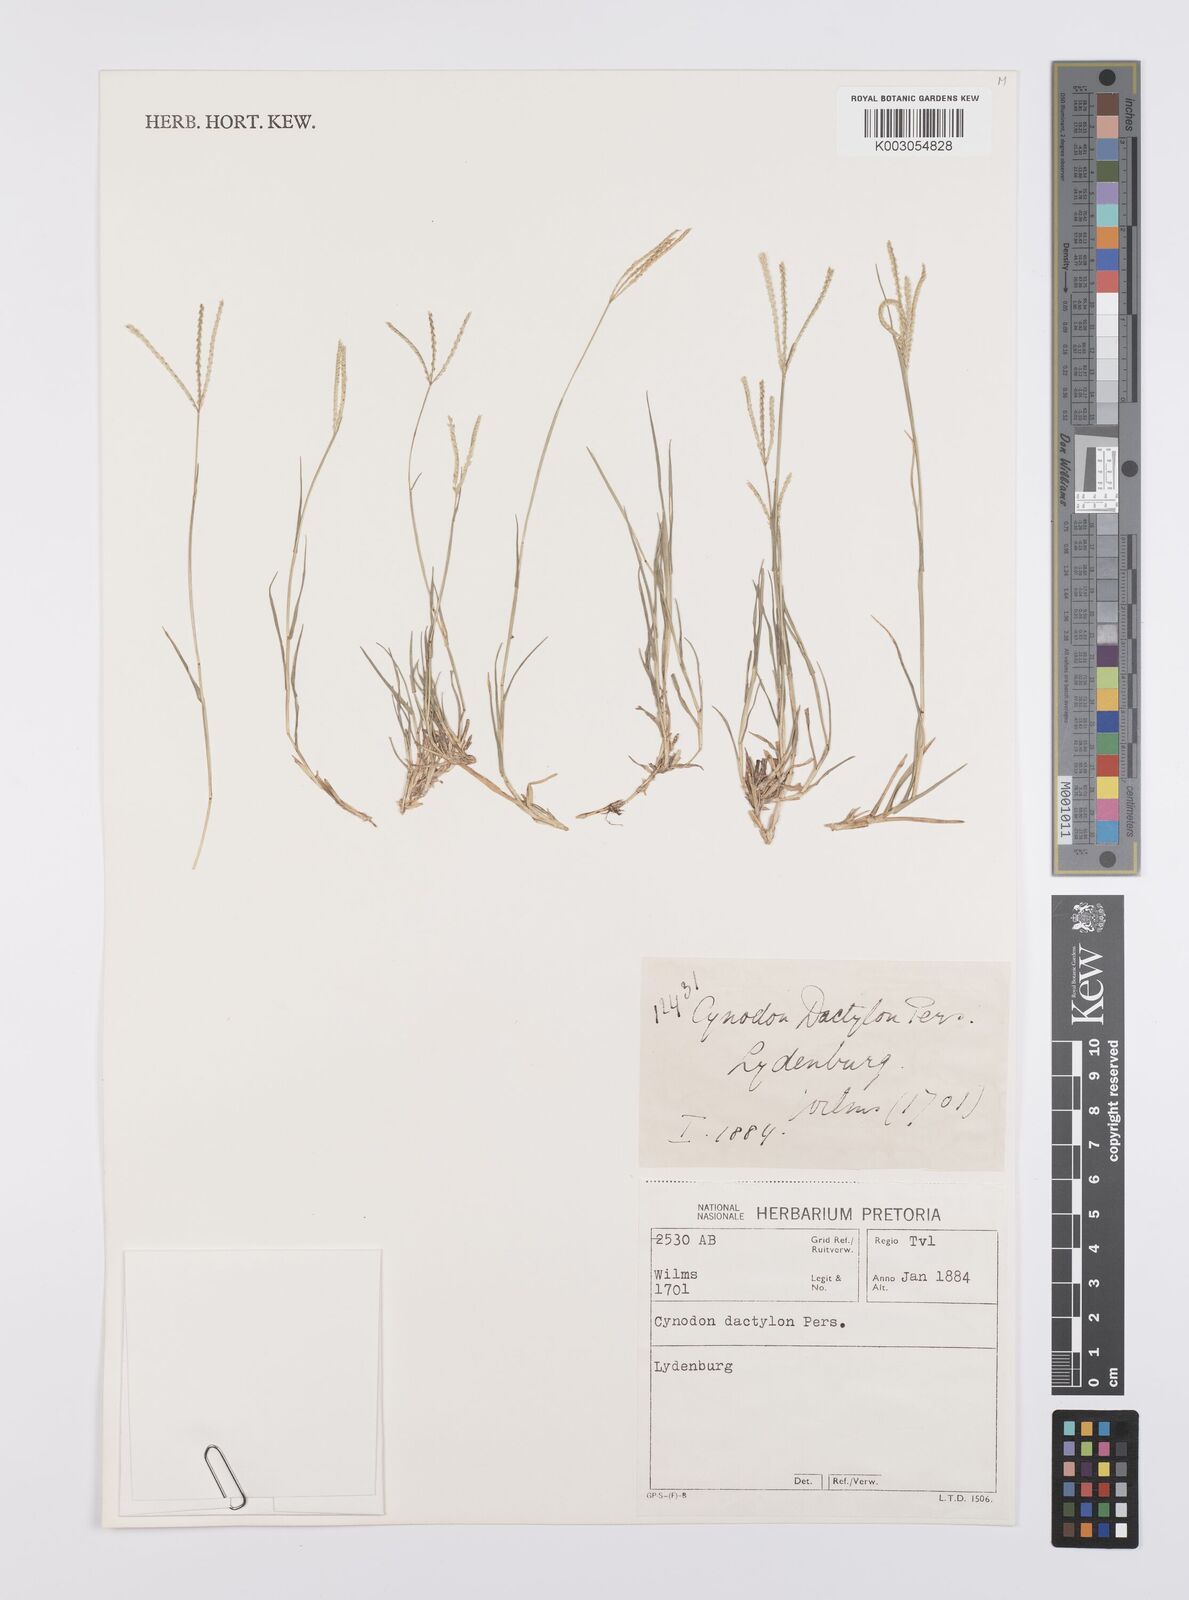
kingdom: Plantae
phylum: Tracheophyta
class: Liliopsida
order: Poales
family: Poaceae
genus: Cynodon
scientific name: Cynodon dactylon
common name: Bermuda grass
